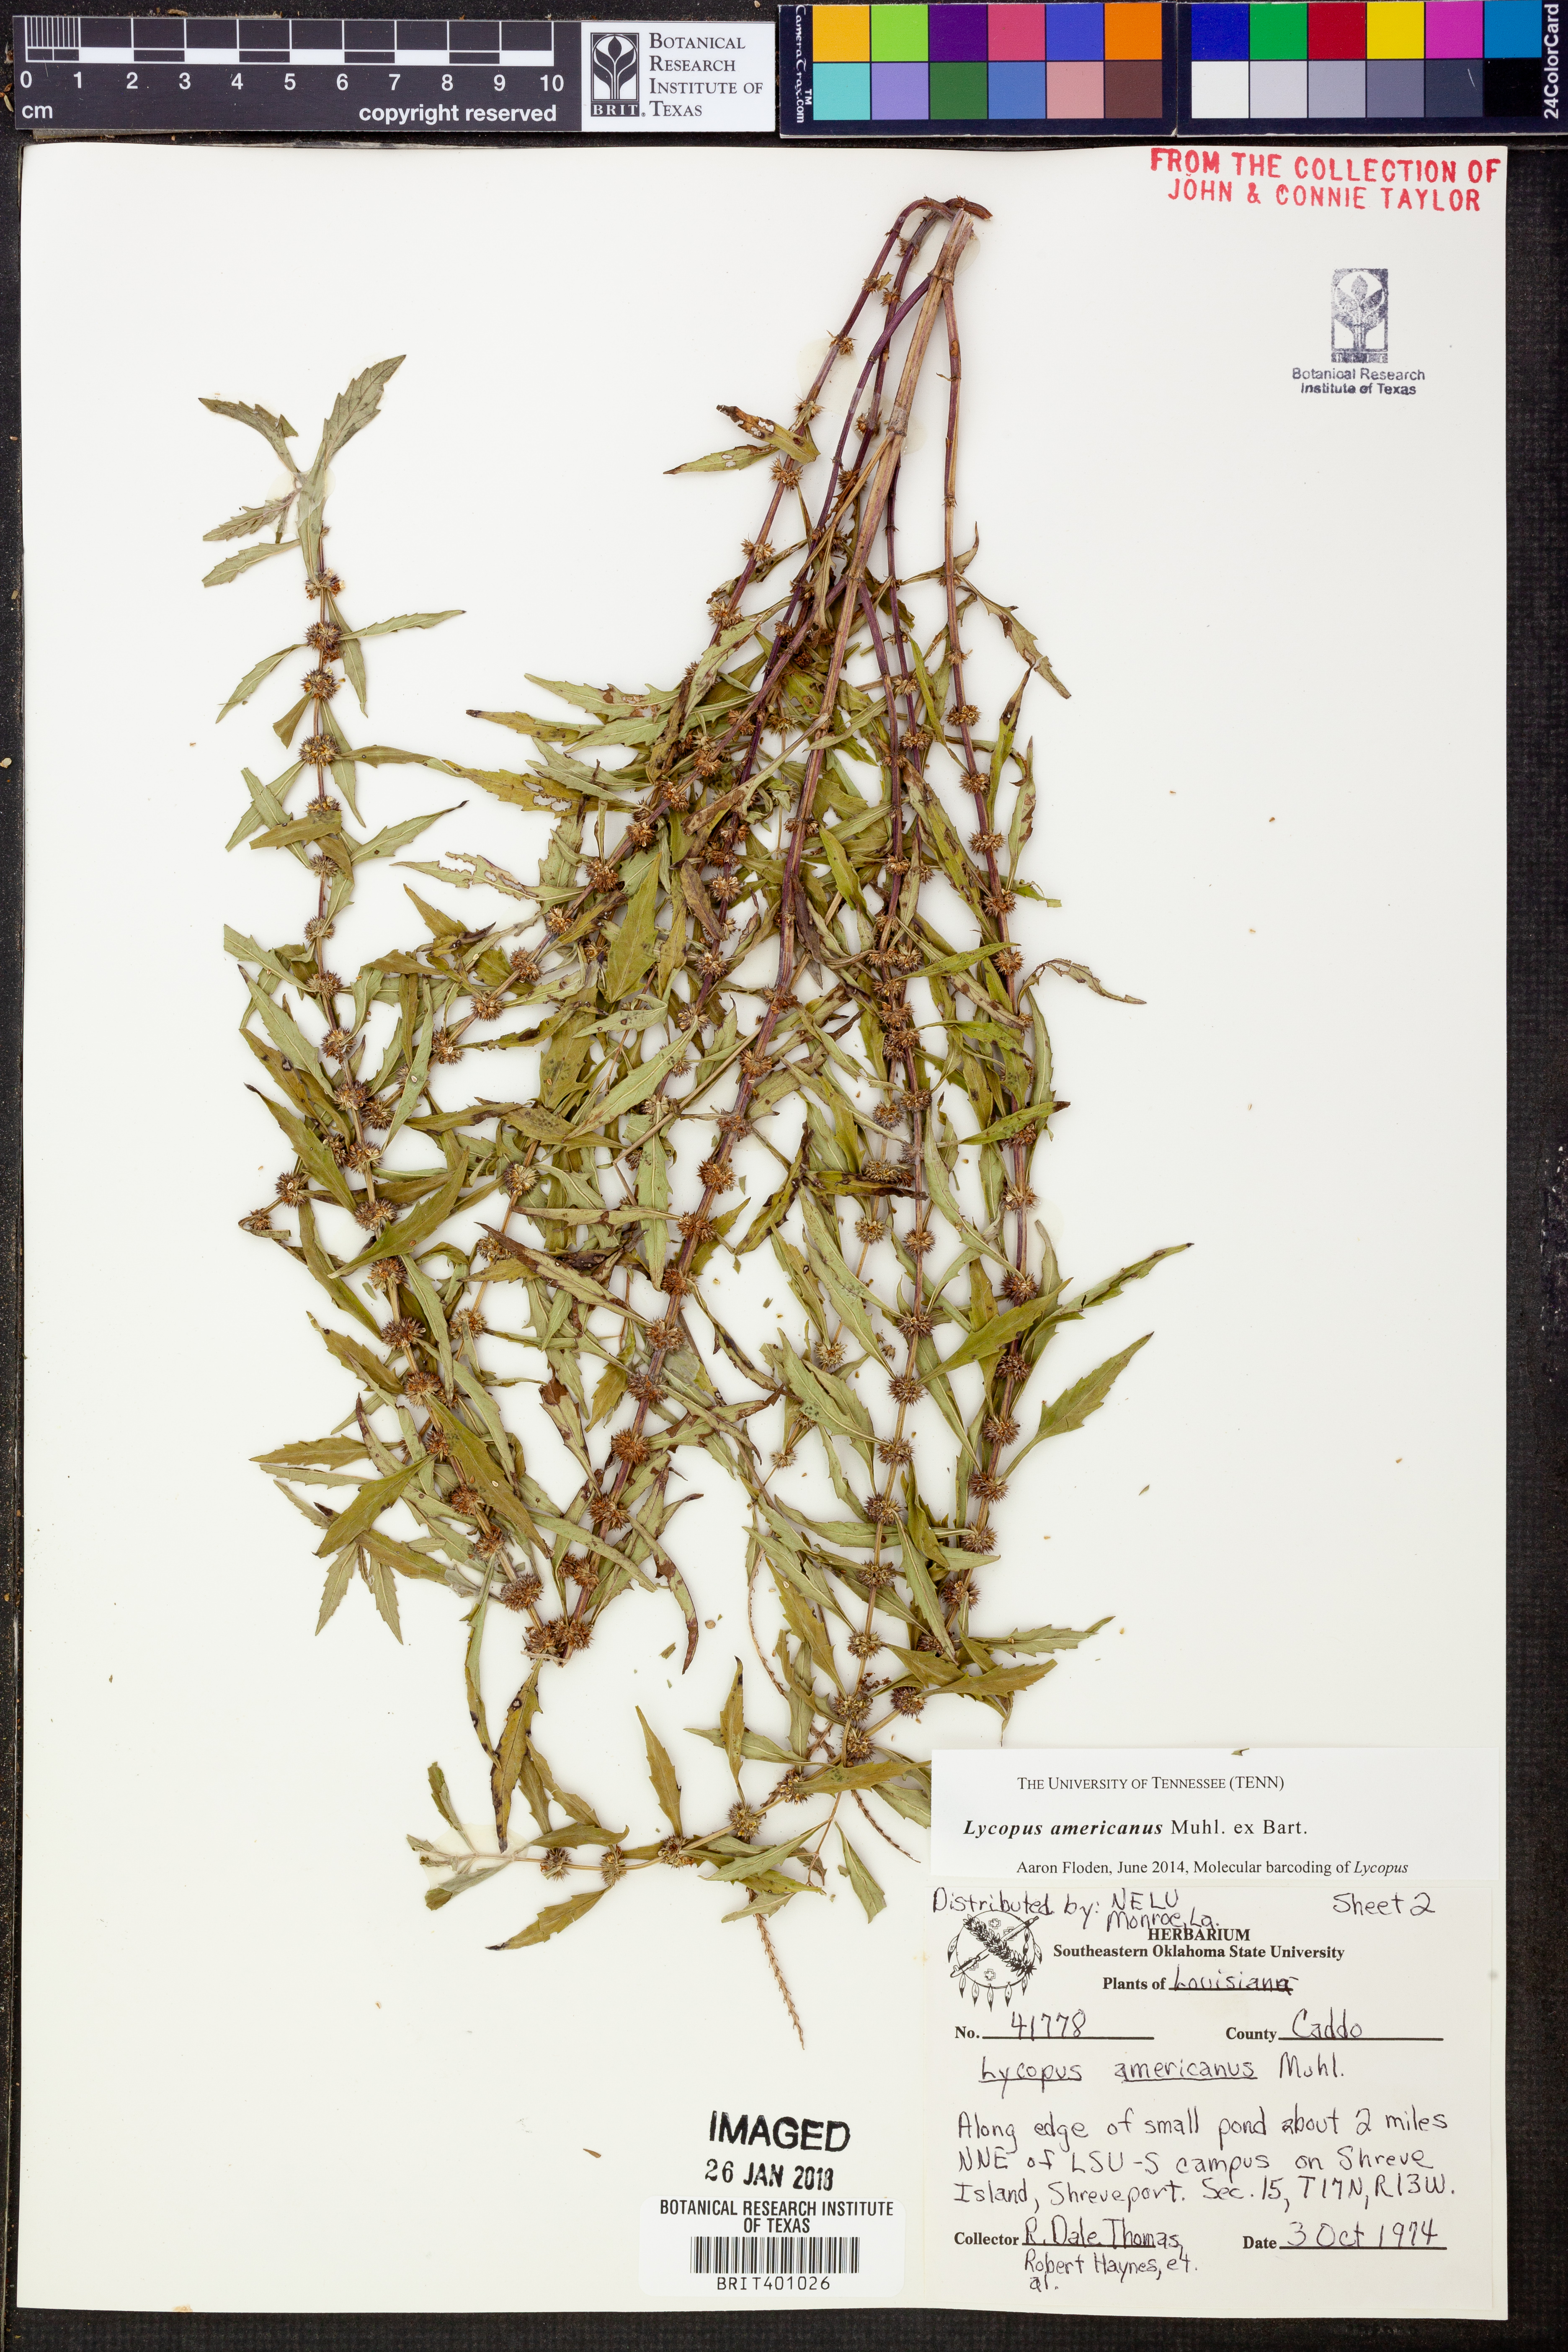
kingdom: Plantae
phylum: Tracheophyta
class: Magnoliopsida
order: Lamiales
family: Lamiaceae
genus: Lycopus
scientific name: Lycopus americanus
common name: American bugleweed
